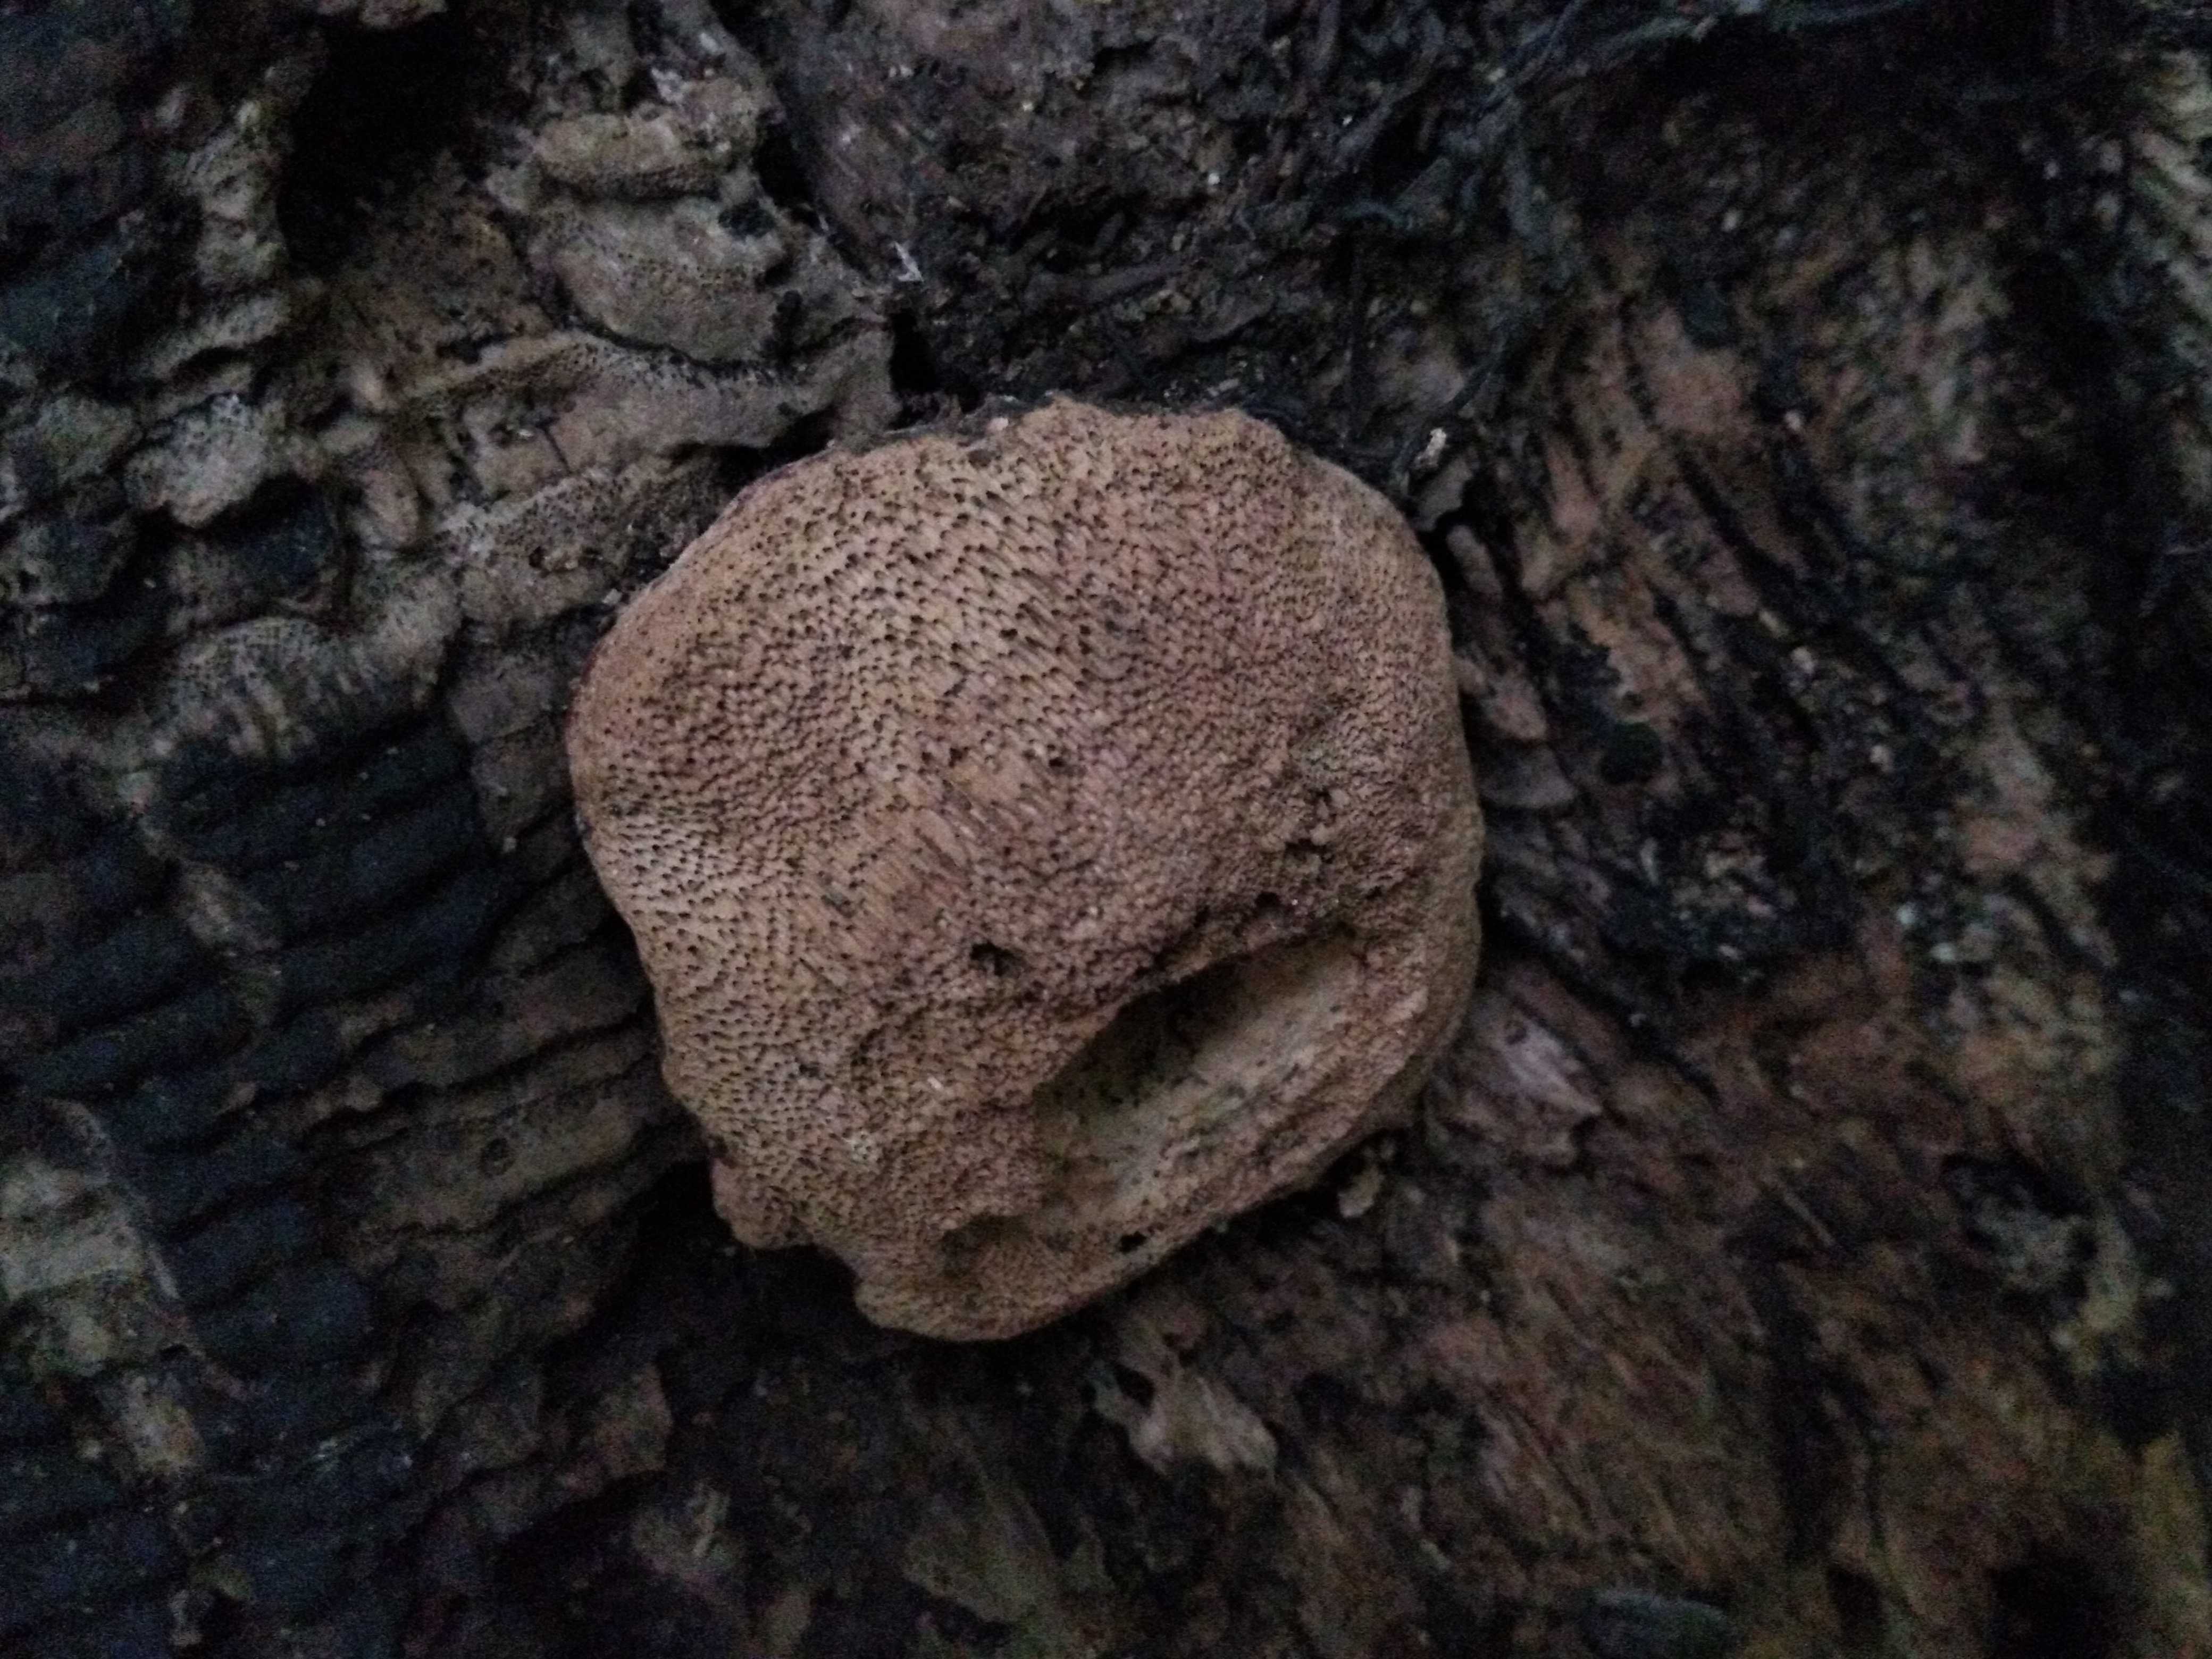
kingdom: Fungi
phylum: Basidiomycota
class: Agaricomycetes
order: Polyporales
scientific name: Polyporales
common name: poresvampordenen
